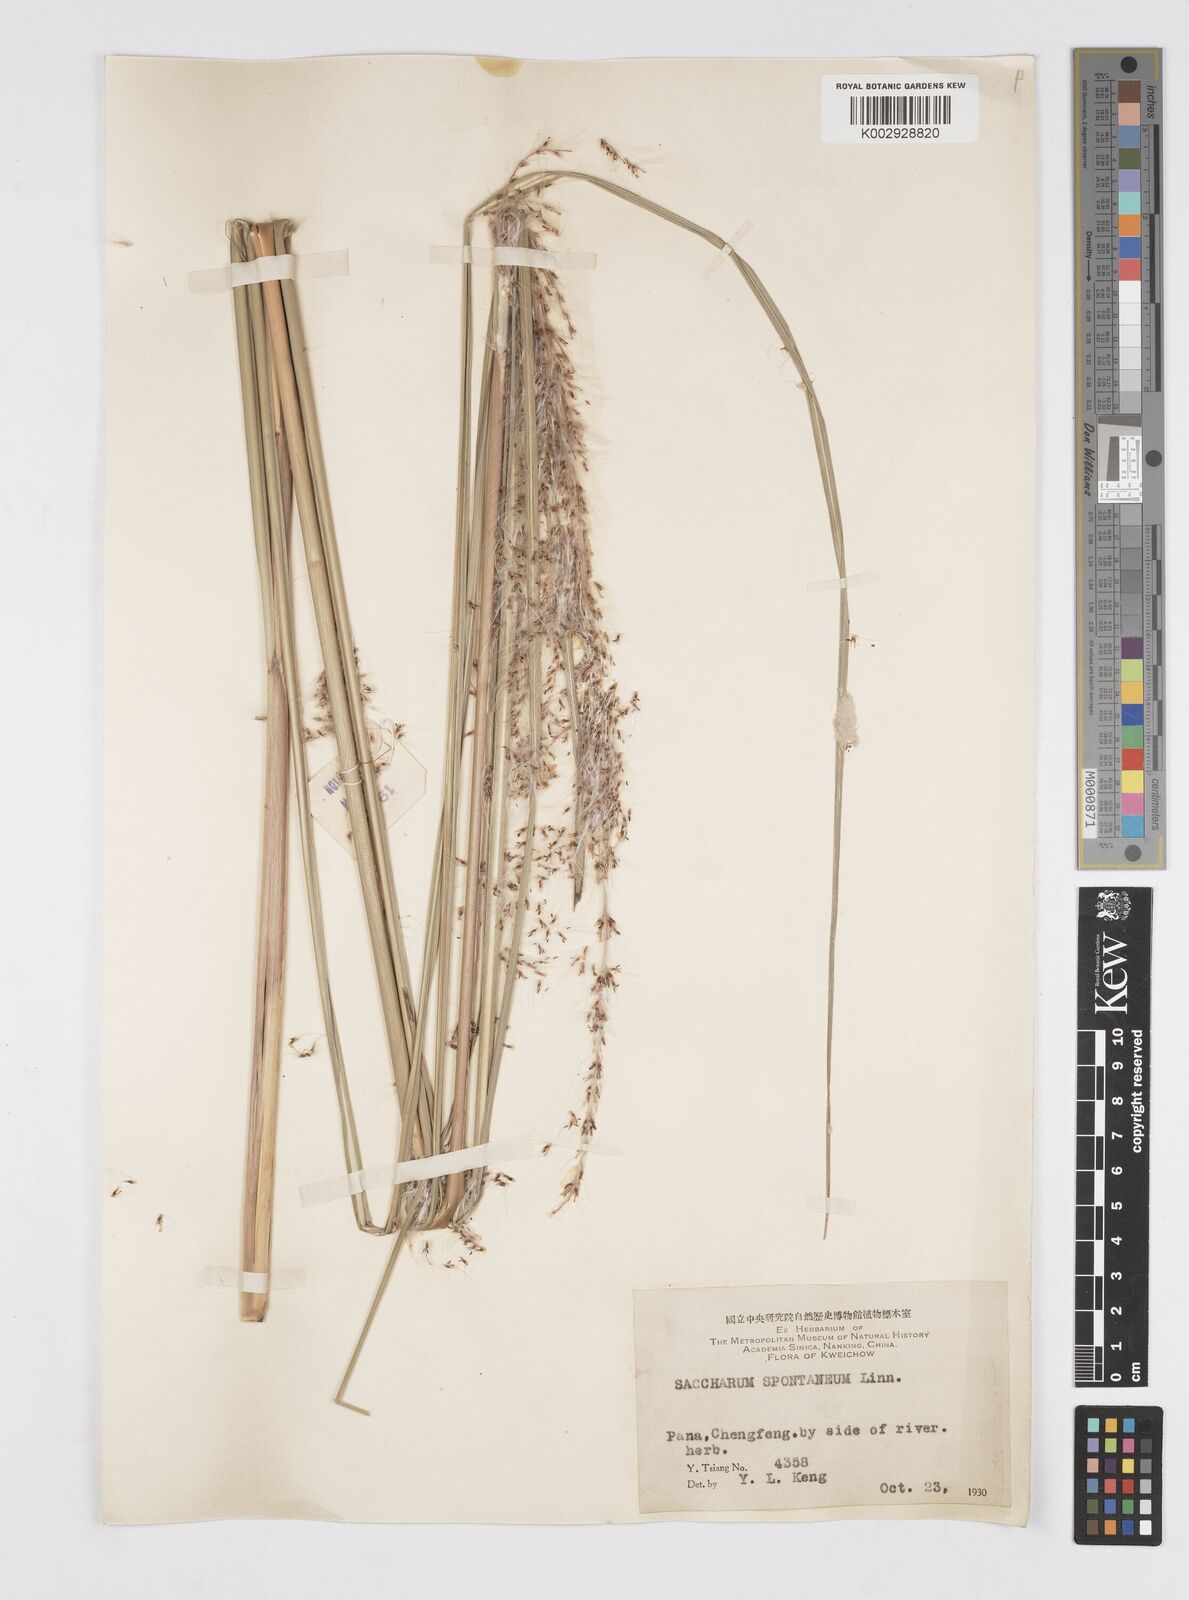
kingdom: Plantae
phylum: Tracheophyta
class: Liliopsida
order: Poales
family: Poaceae
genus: Saccharum
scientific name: Saccharum spontaneum
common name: Wild sugarcane
